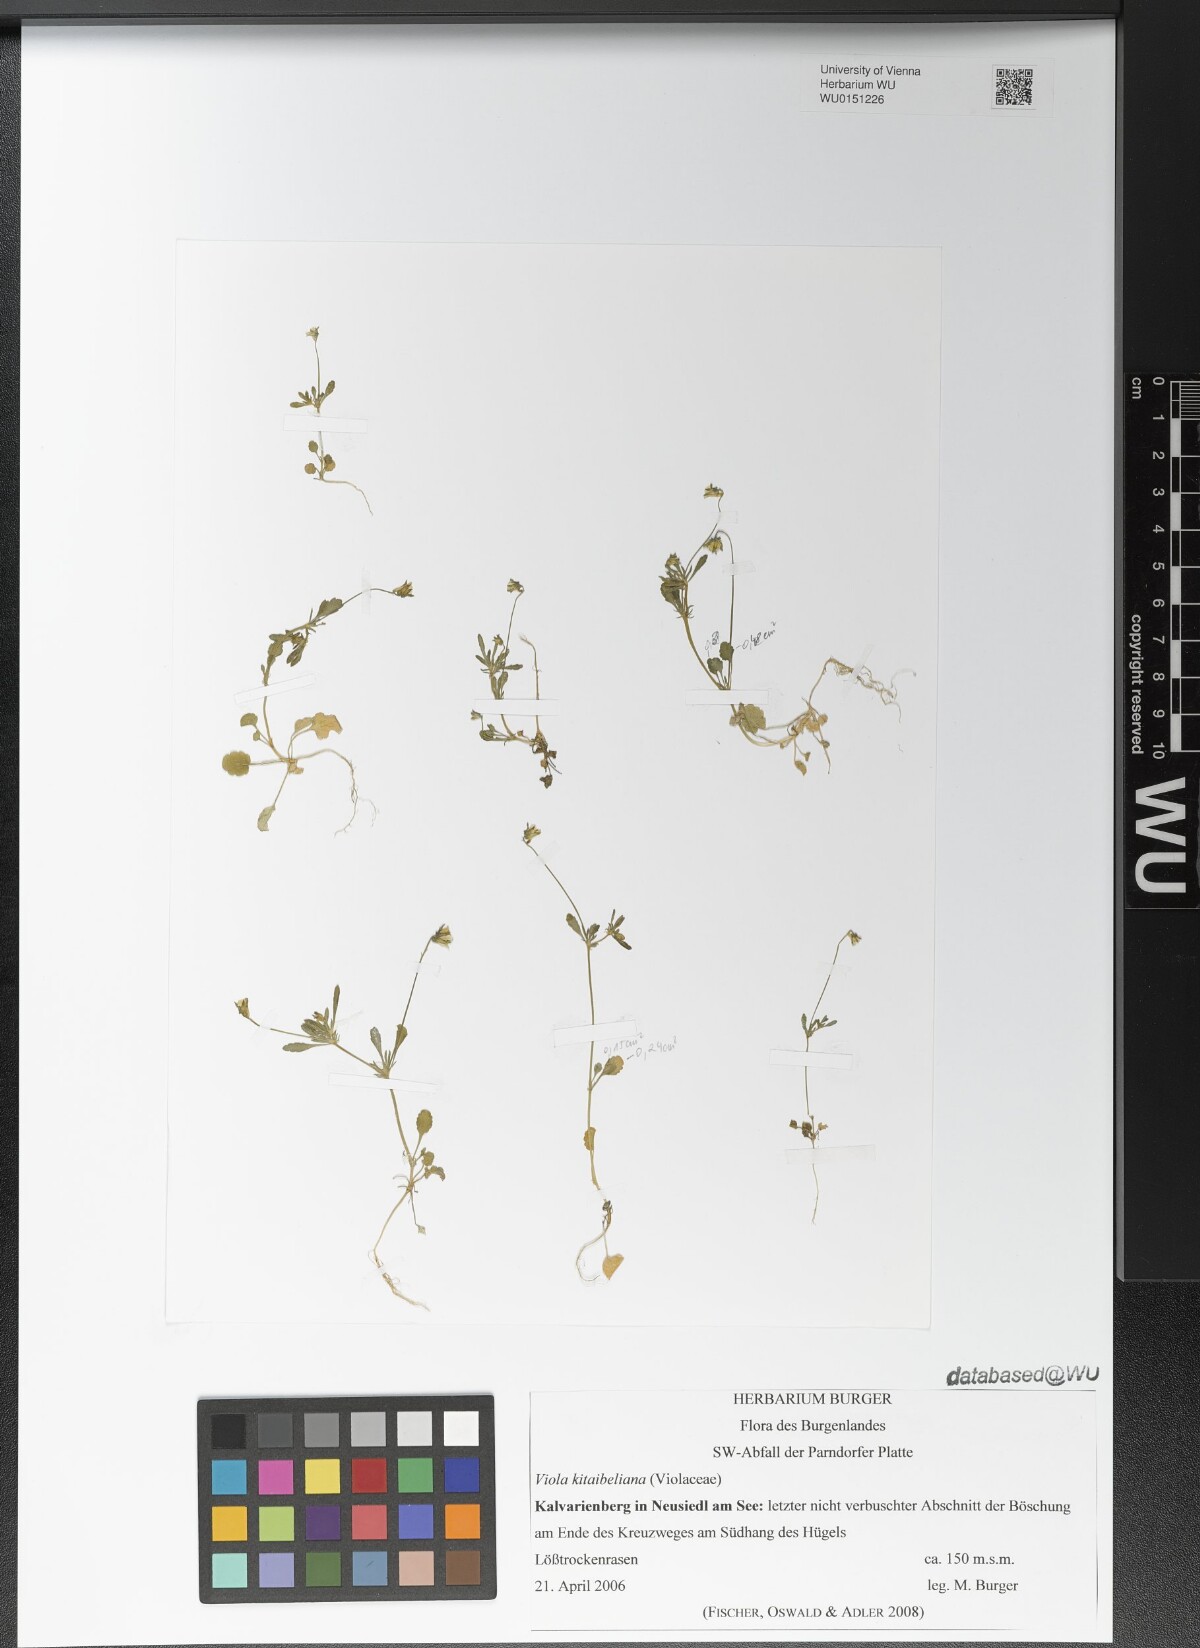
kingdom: Plantae
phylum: Tracheophyta
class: Magnoliopsida
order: Malpighiales
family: Violaceae
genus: Viola
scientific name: Viola kitaibeliana
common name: Dwarf pansy
